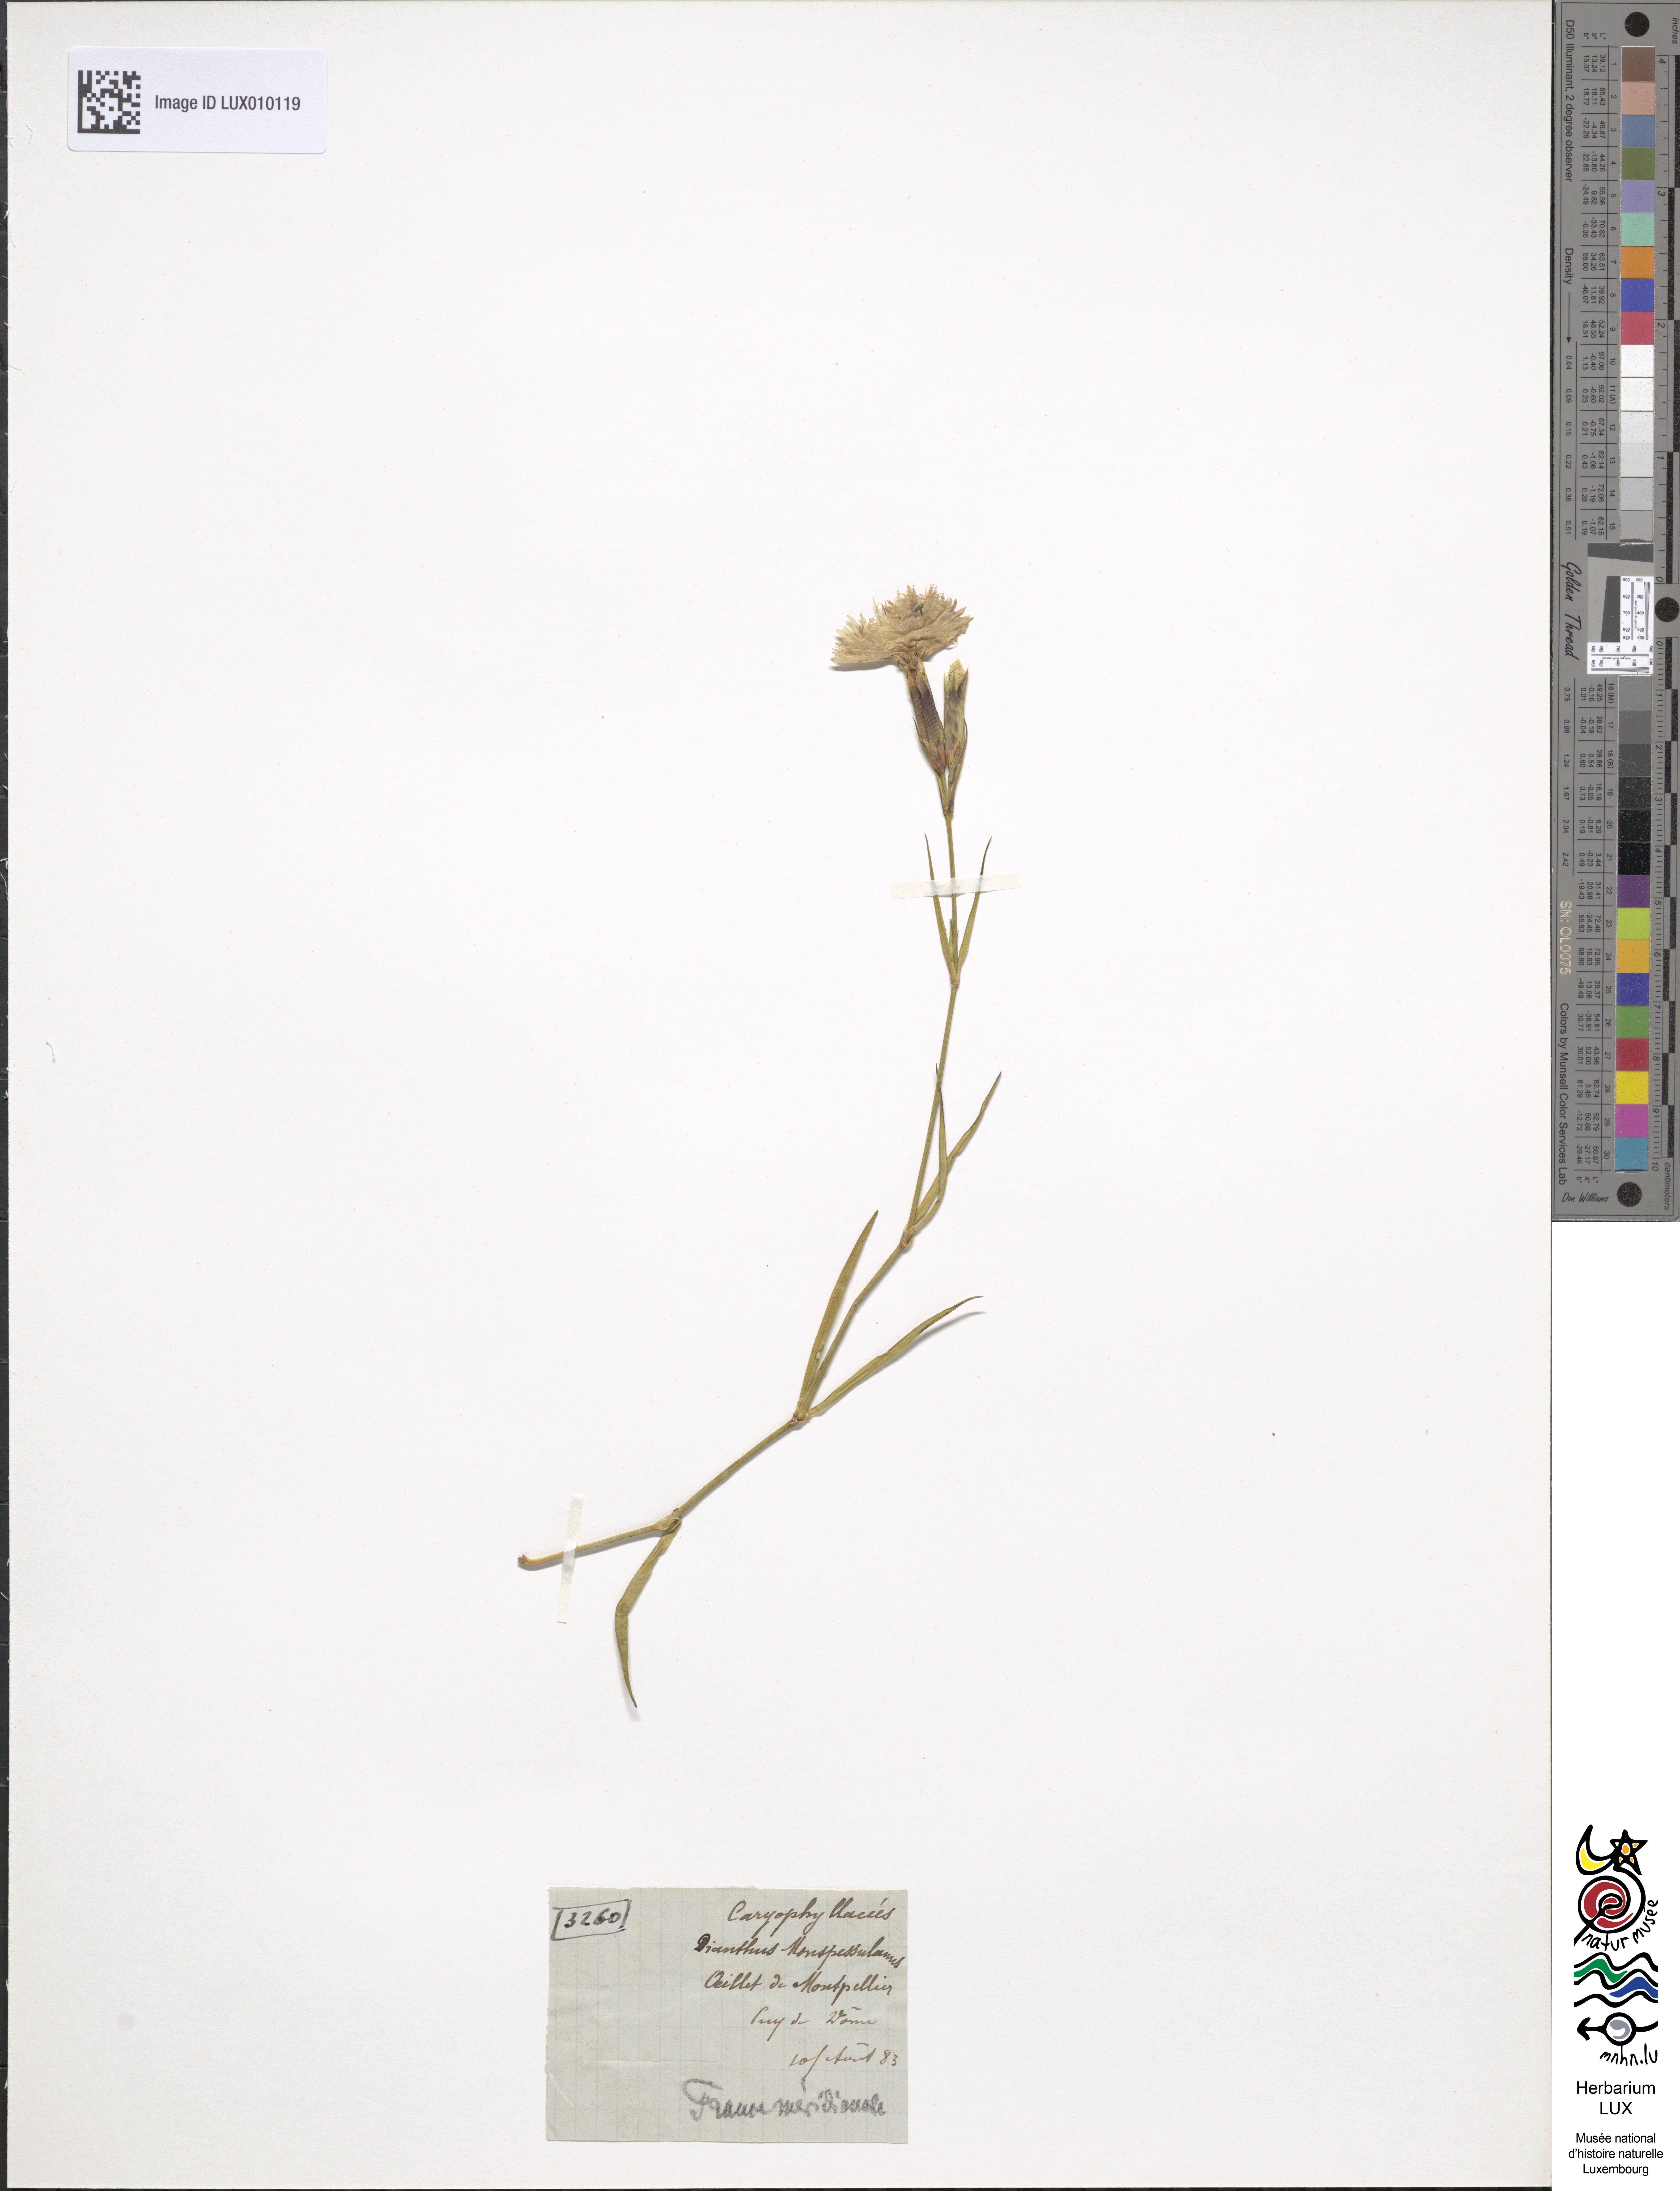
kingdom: Plantae
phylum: Tracheophyta
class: Magnoliopsida
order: Caryophyllales
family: Caryophyllaceae
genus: Dianthus
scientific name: Dianthus hyssopifolius
